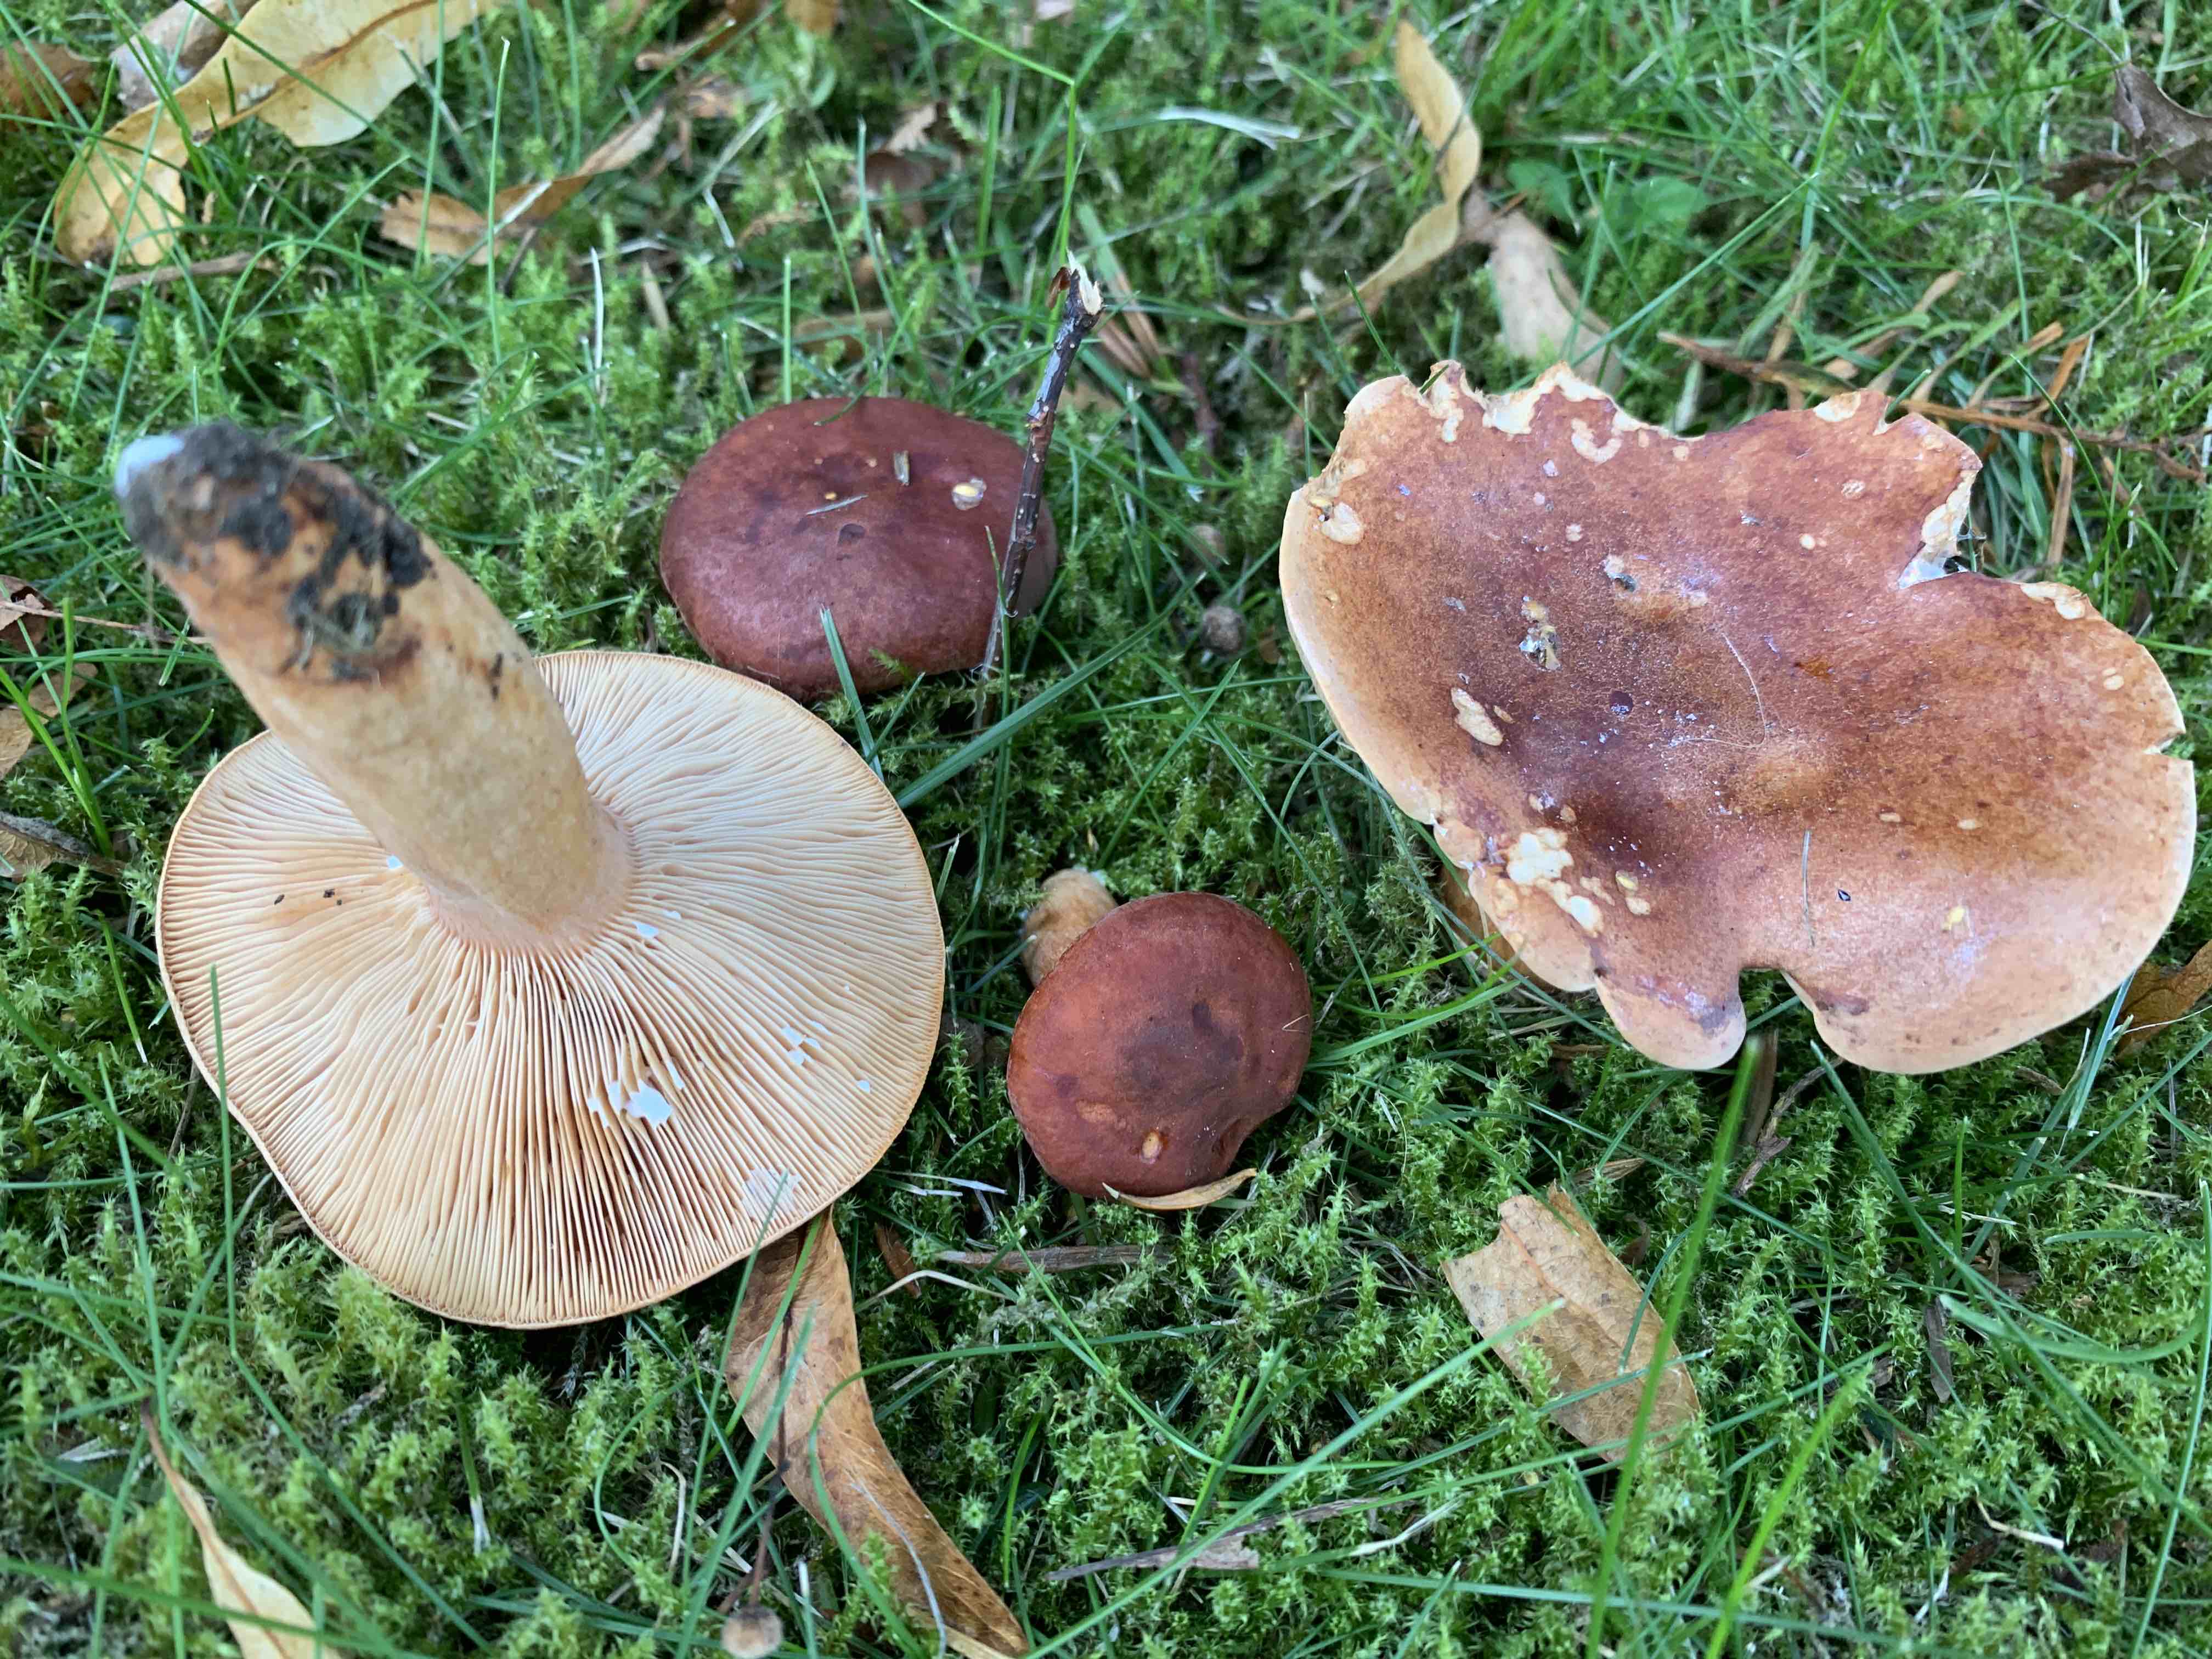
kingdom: Fungi
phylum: Basidiomycota
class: Agaricomycetes
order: Russulales
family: Russulaceae
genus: Lactarius
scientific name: Lactarius fulvissimus
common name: ræve-mælkehat
